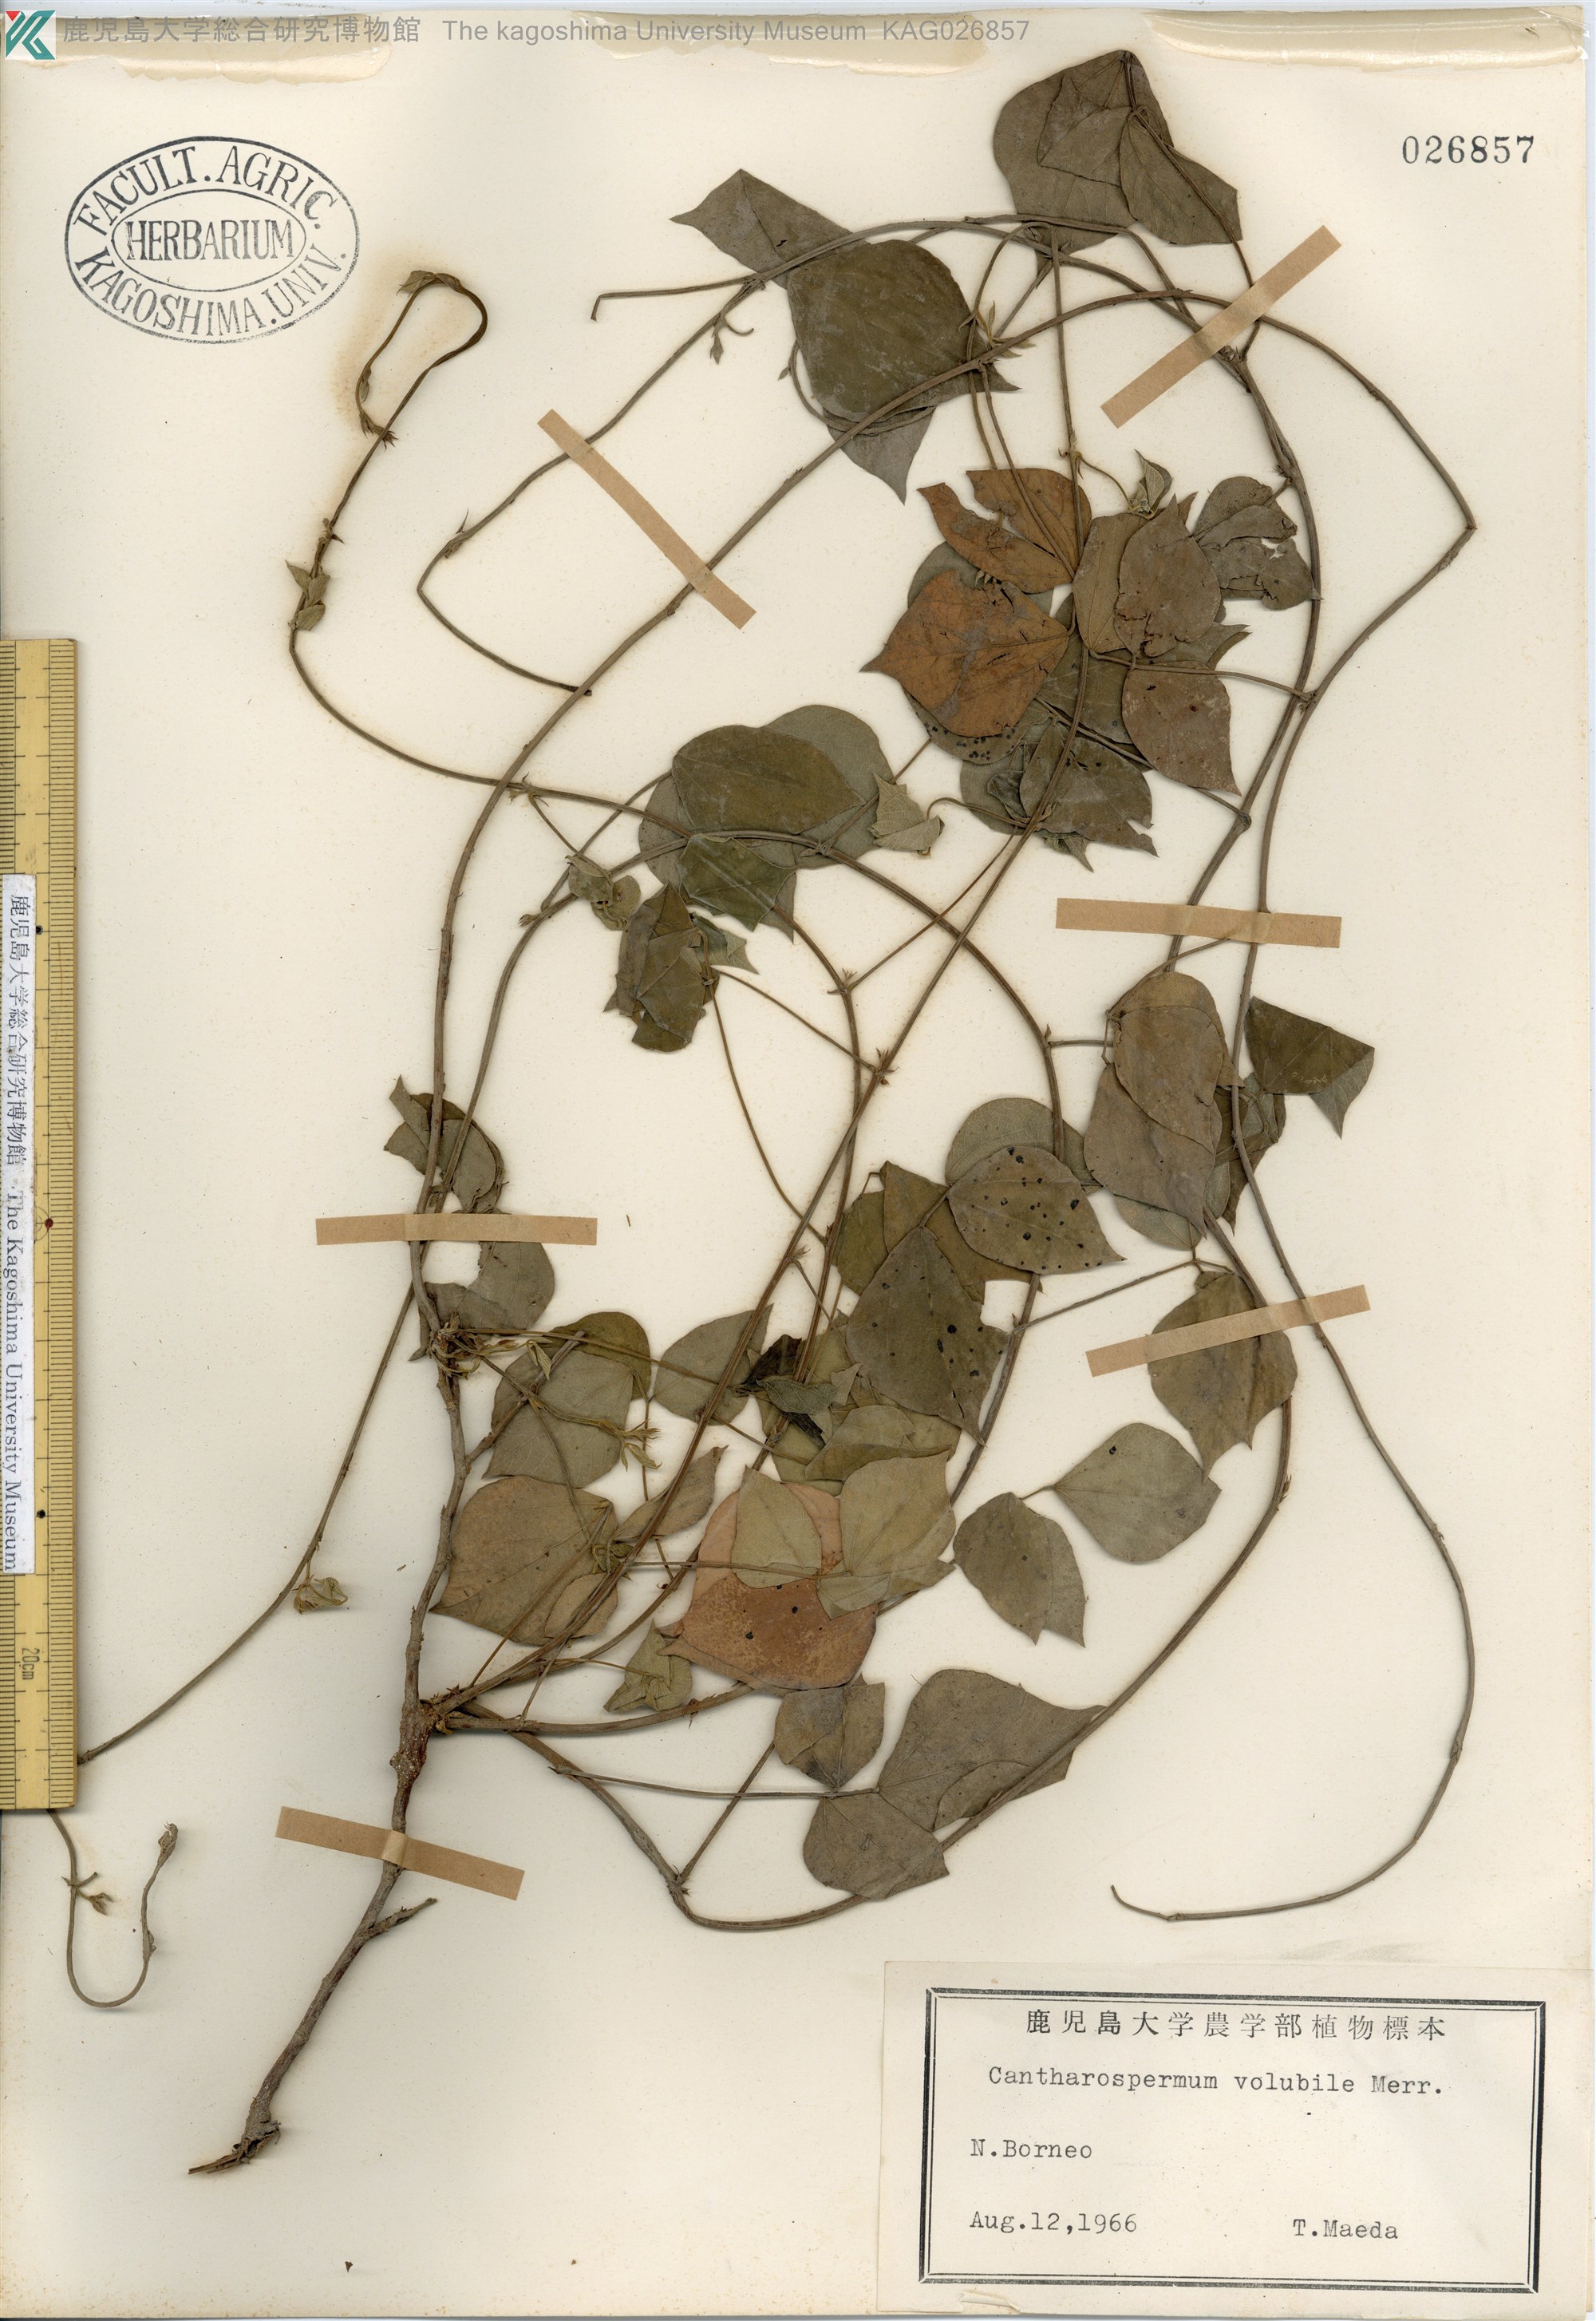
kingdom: Plantae
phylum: Tracheophyta
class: Magnoliopsida
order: Fabales
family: Fabaceae
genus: Cajanus
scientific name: Cajanus volubilis
